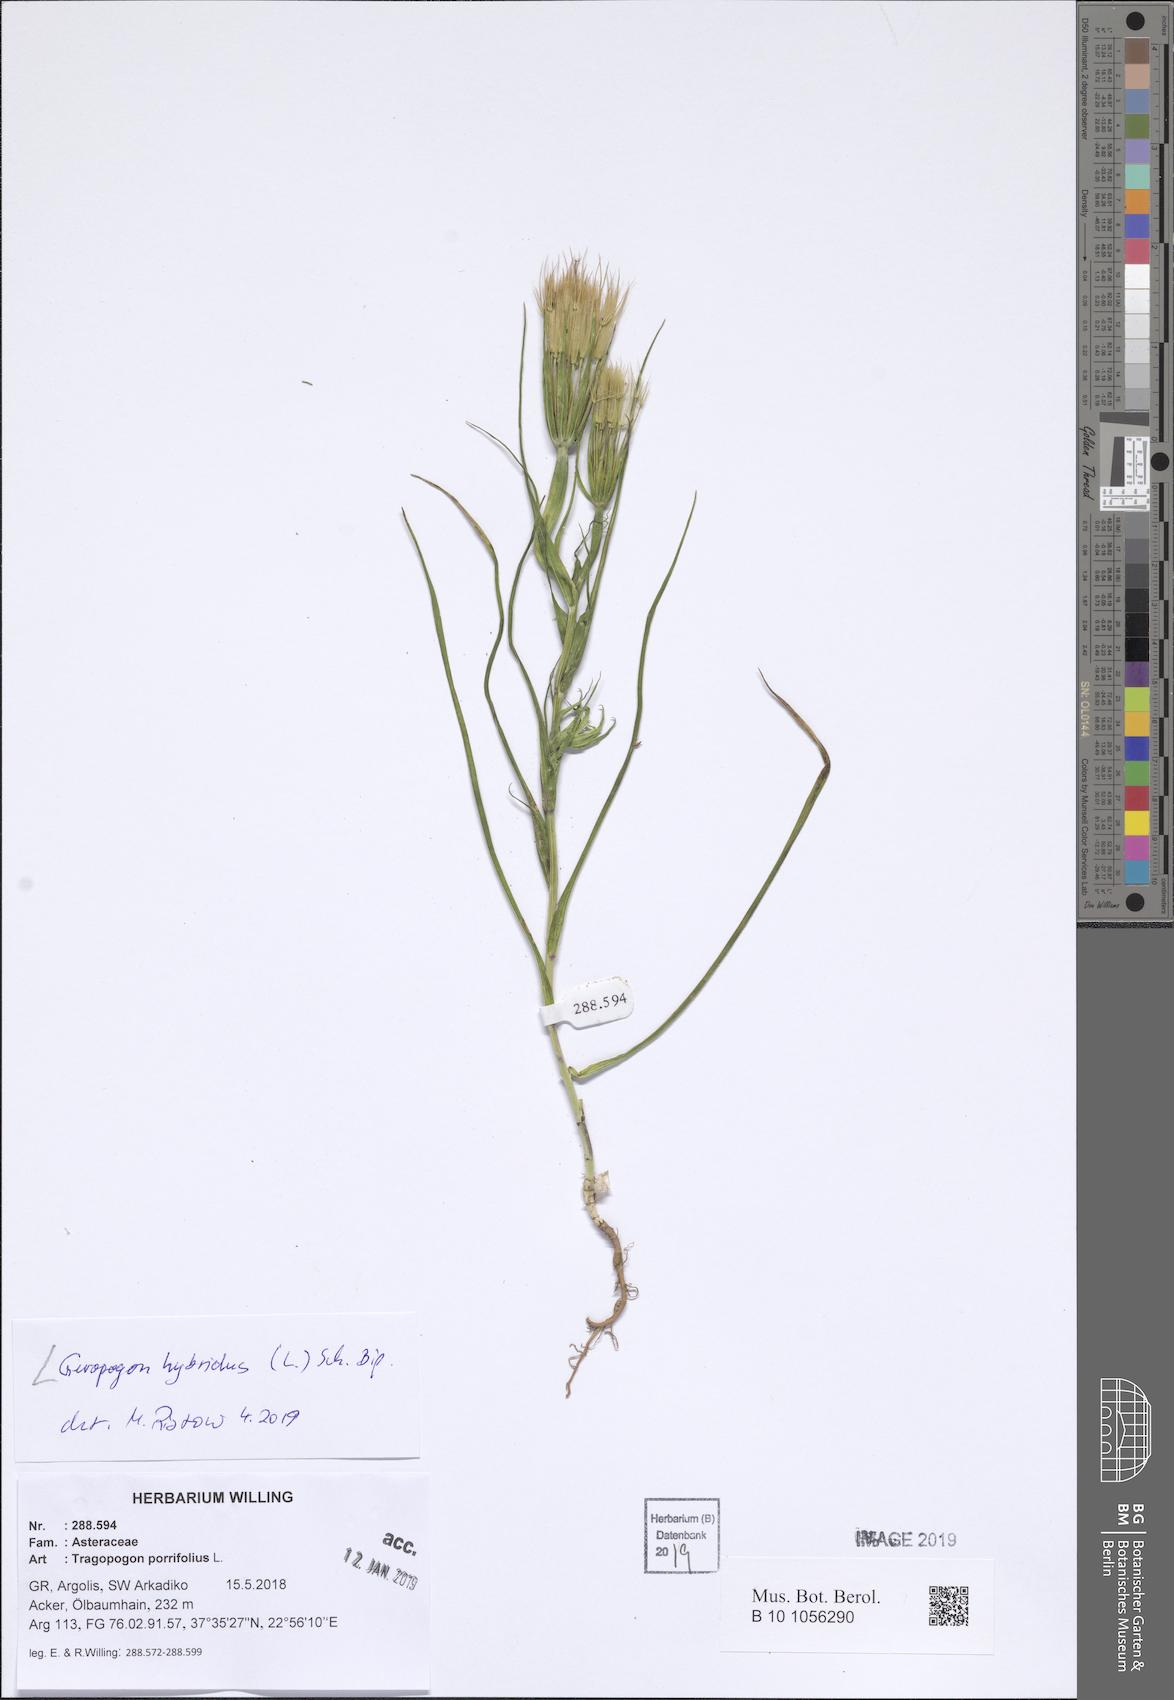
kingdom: Plantae
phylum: Tracheophyta
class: Magnoliopsida
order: Asterales
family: Asteraceae
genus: Geropogon
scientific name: Geropogon hybridus
